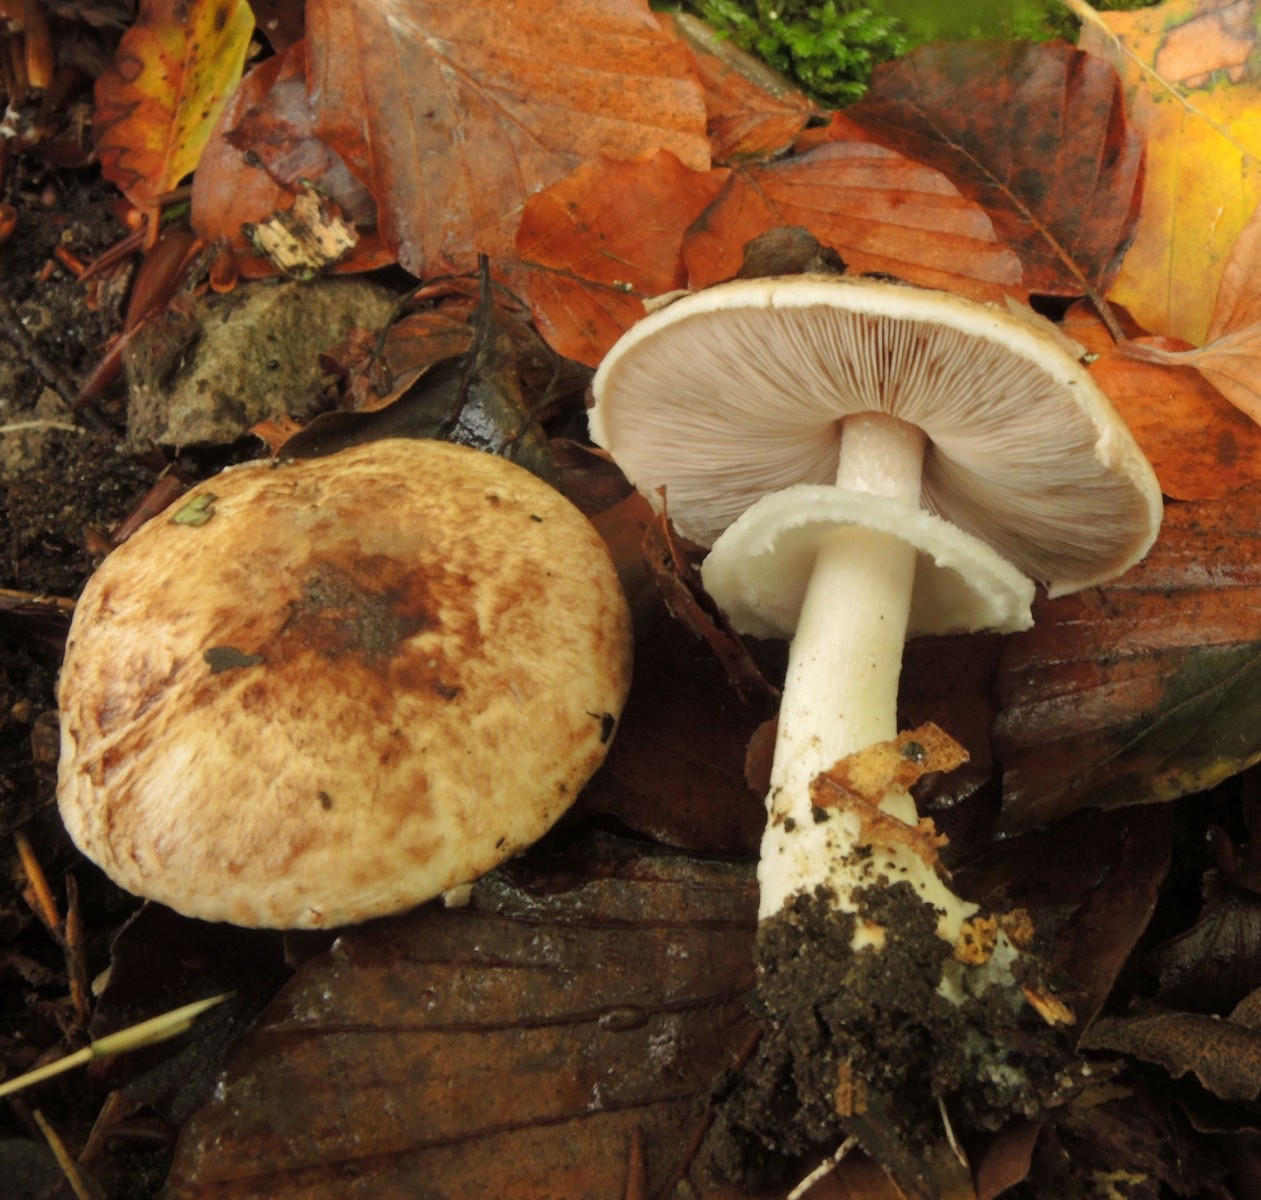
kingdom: Fungi
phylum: Basidiomycota
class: Agaricomycetes
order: Agaricales
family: Agaricaceae
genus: Agaricus
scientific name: Agaricus impudicus
